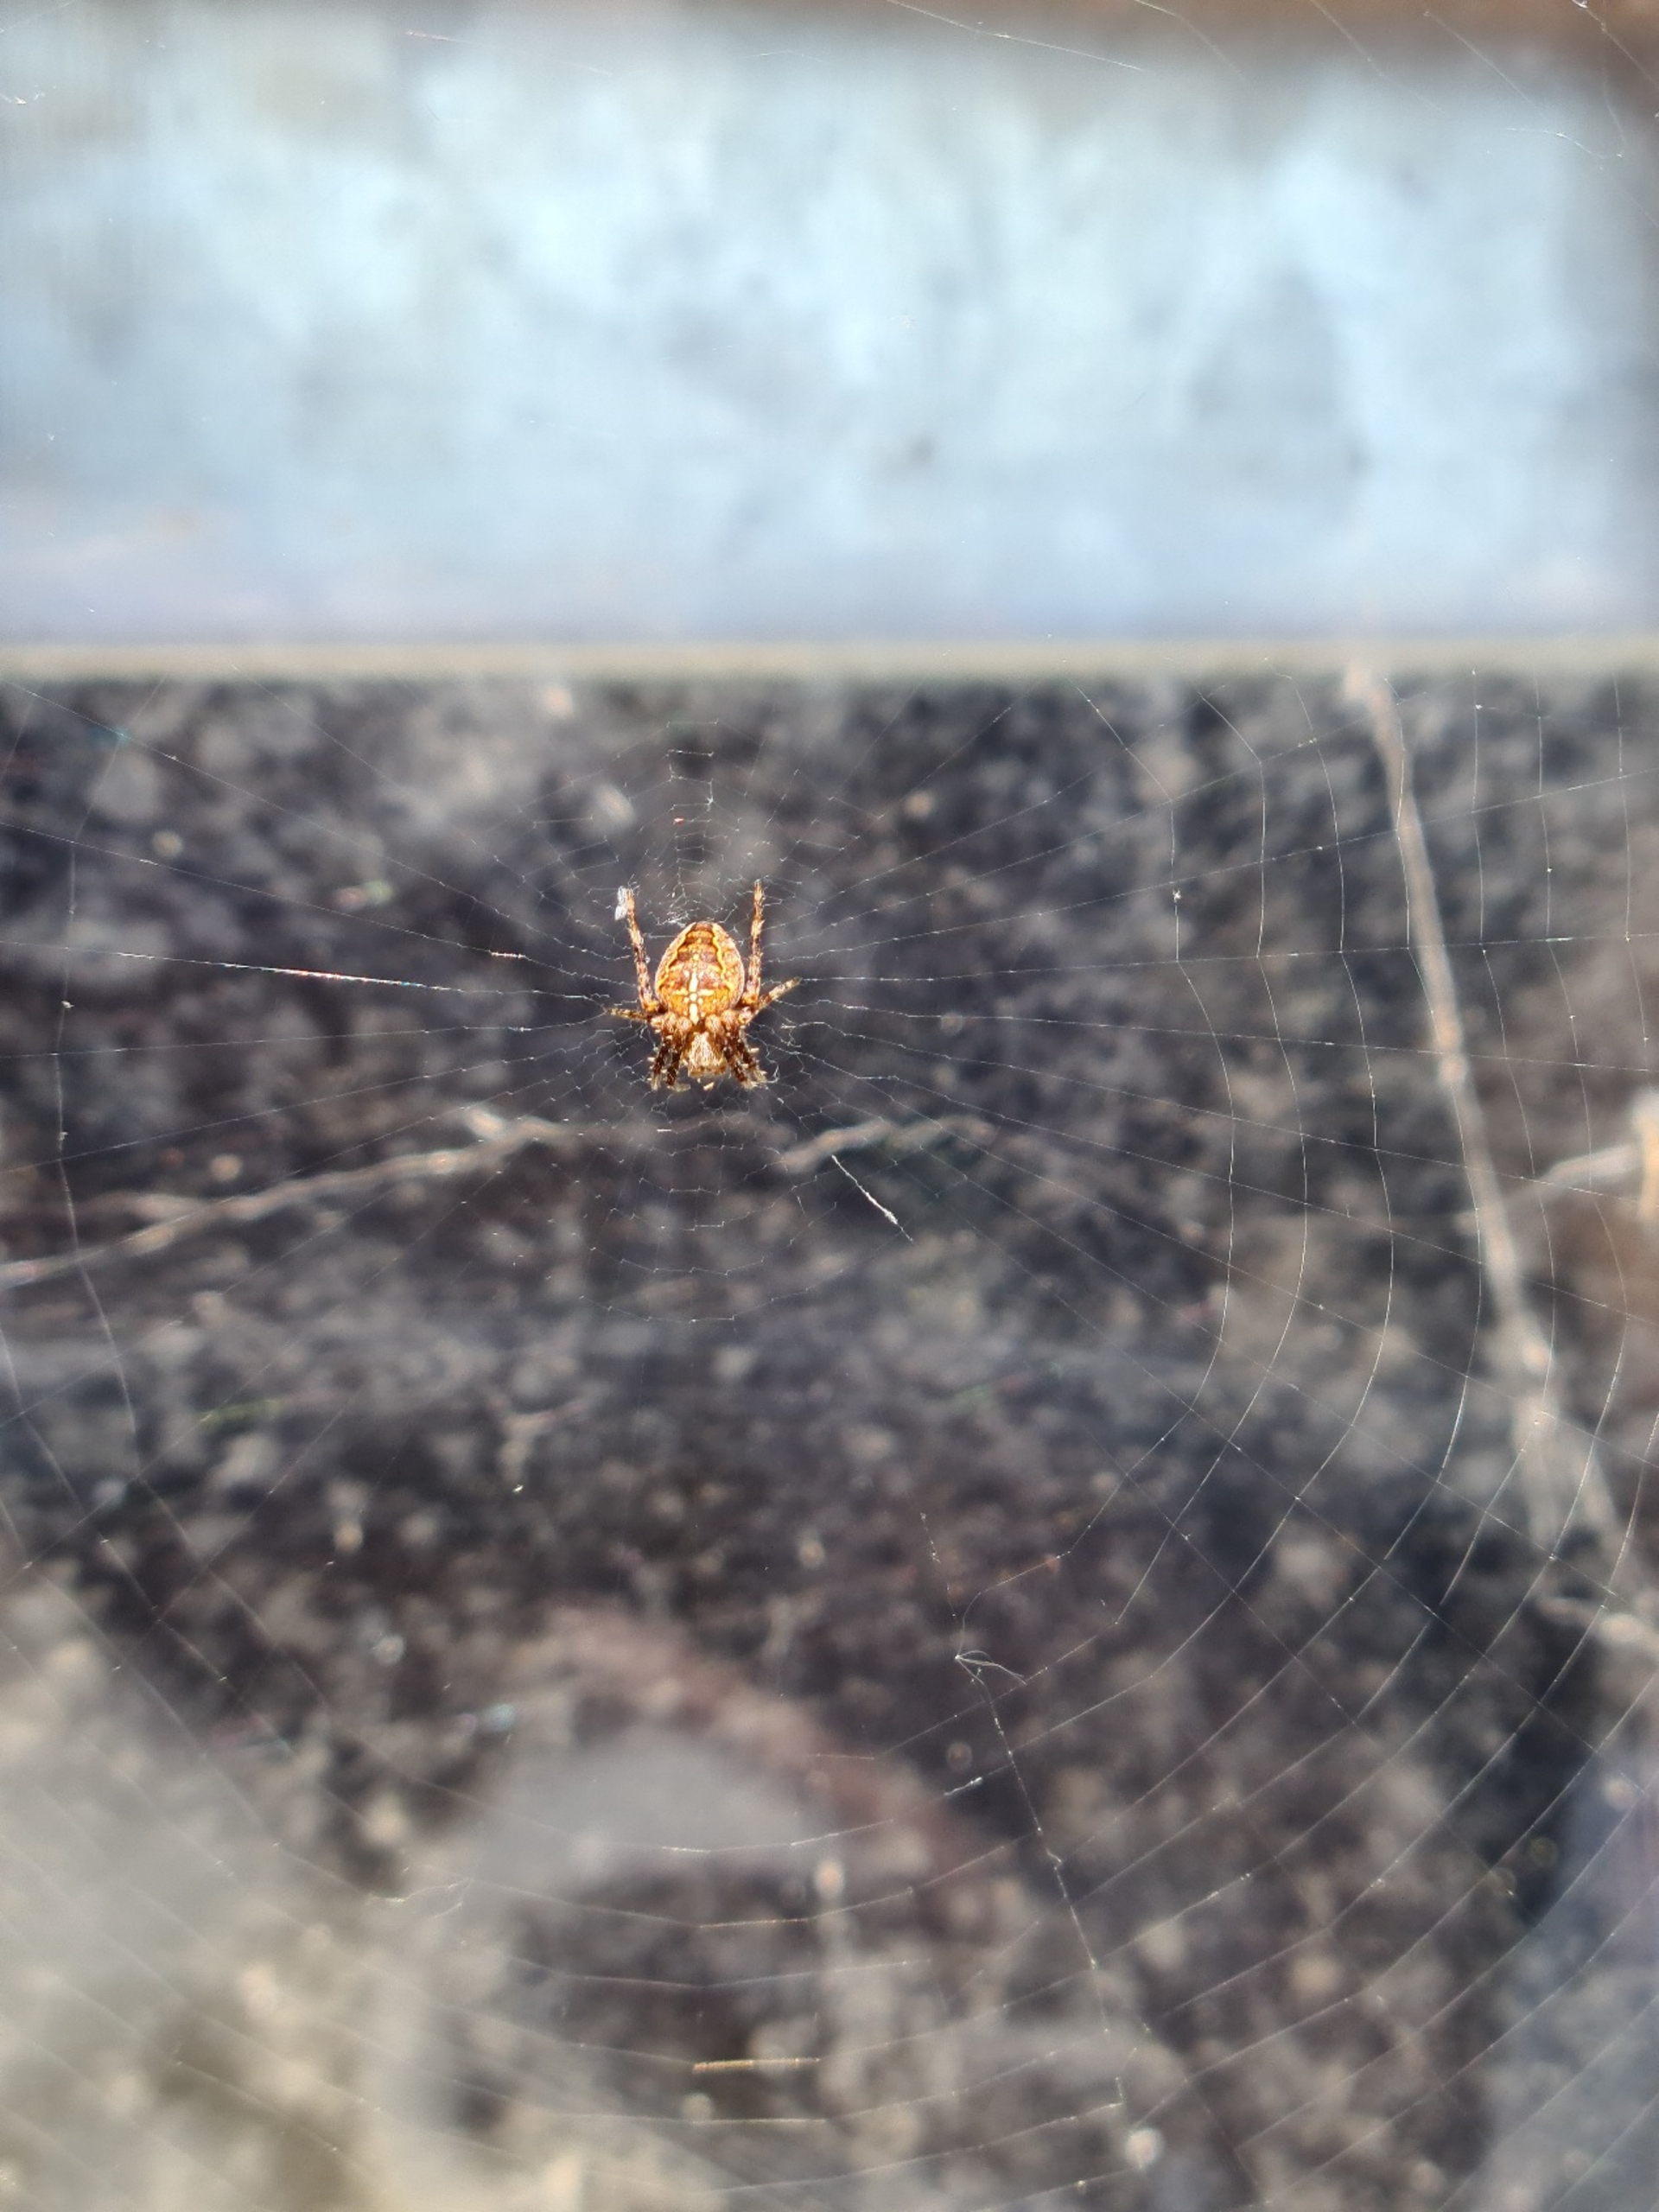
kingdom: Animalia
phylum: Arthropoda
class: Arachnida
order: Araneae
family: Araneidae
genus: Araneus
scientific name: Araneus diadematus
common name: Korsedderkop
